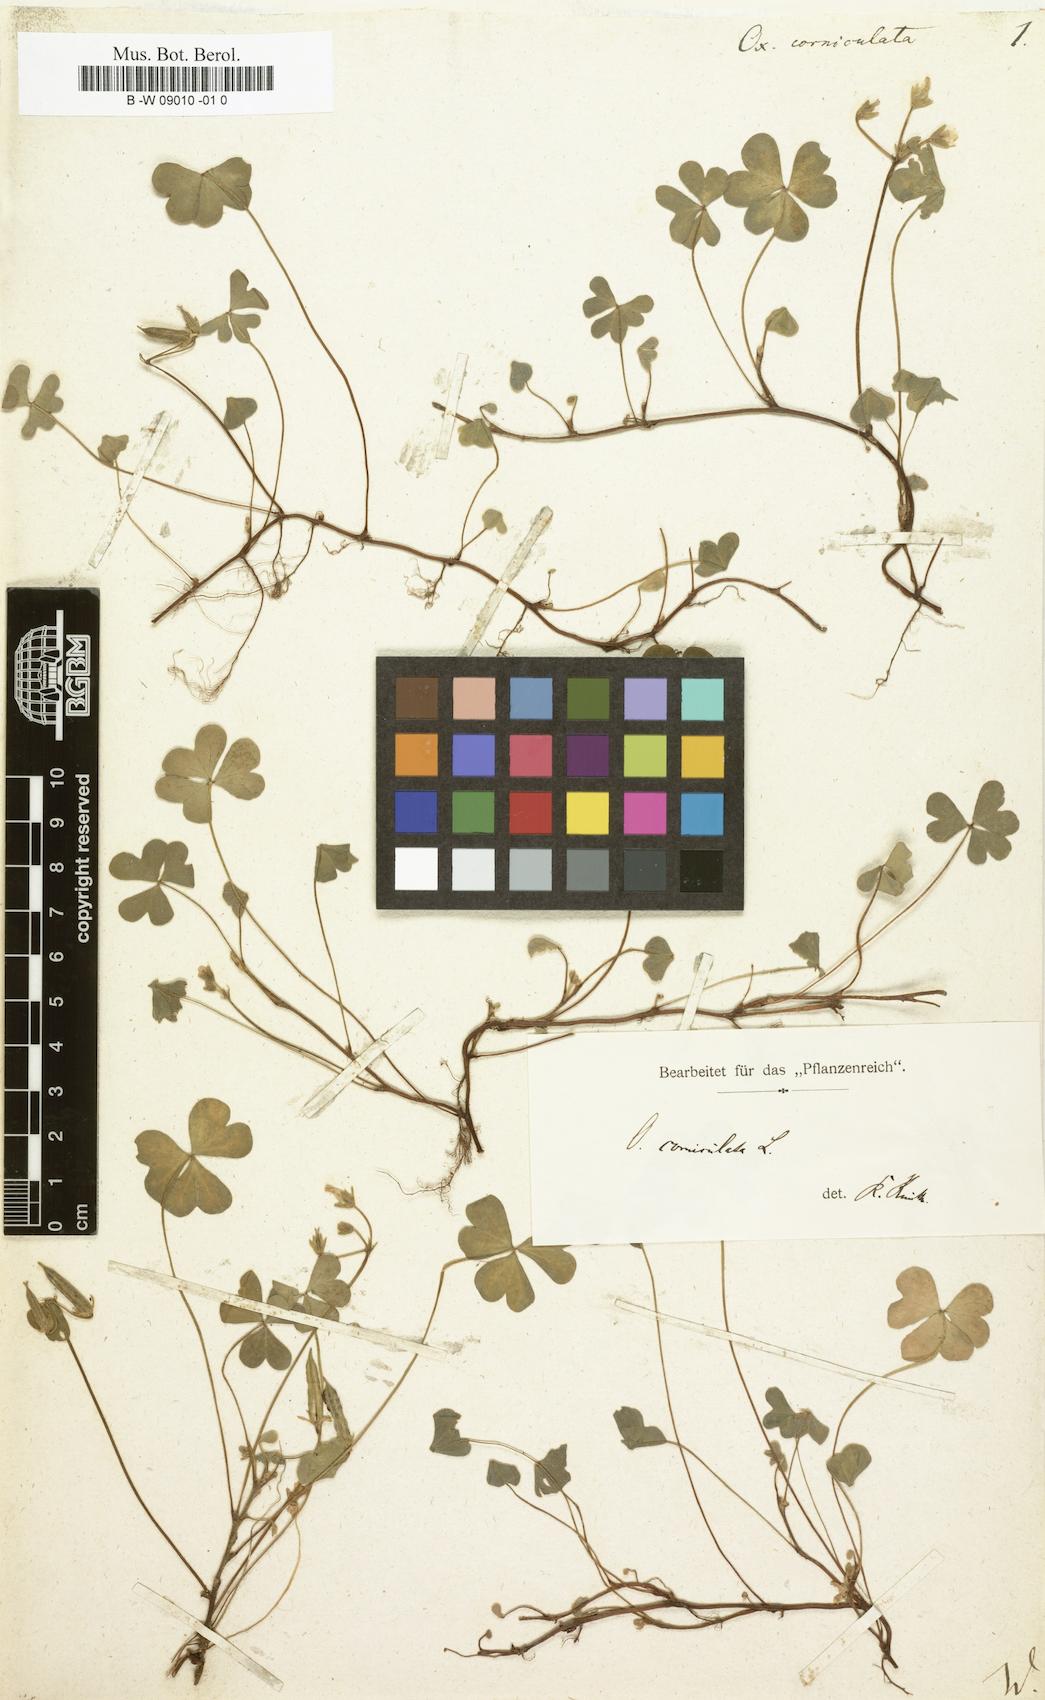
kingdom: Plantae
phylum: Tracheophyta
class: Magnoliopsida
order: Oxalidales
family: Oxalidaceae
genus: Oxalis
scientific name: Oxalis corniculata
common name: Procumbent yellow-sorrel
